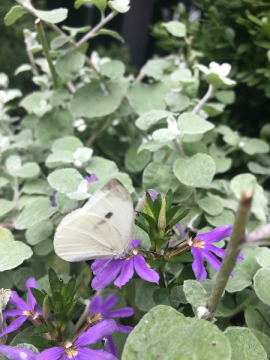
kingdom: Animalia
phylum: Arthropoda
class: Insecta
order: Lepidoptera
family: Pieridae
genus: Pieris
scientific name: Pieris rapae
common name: Cabbage White
